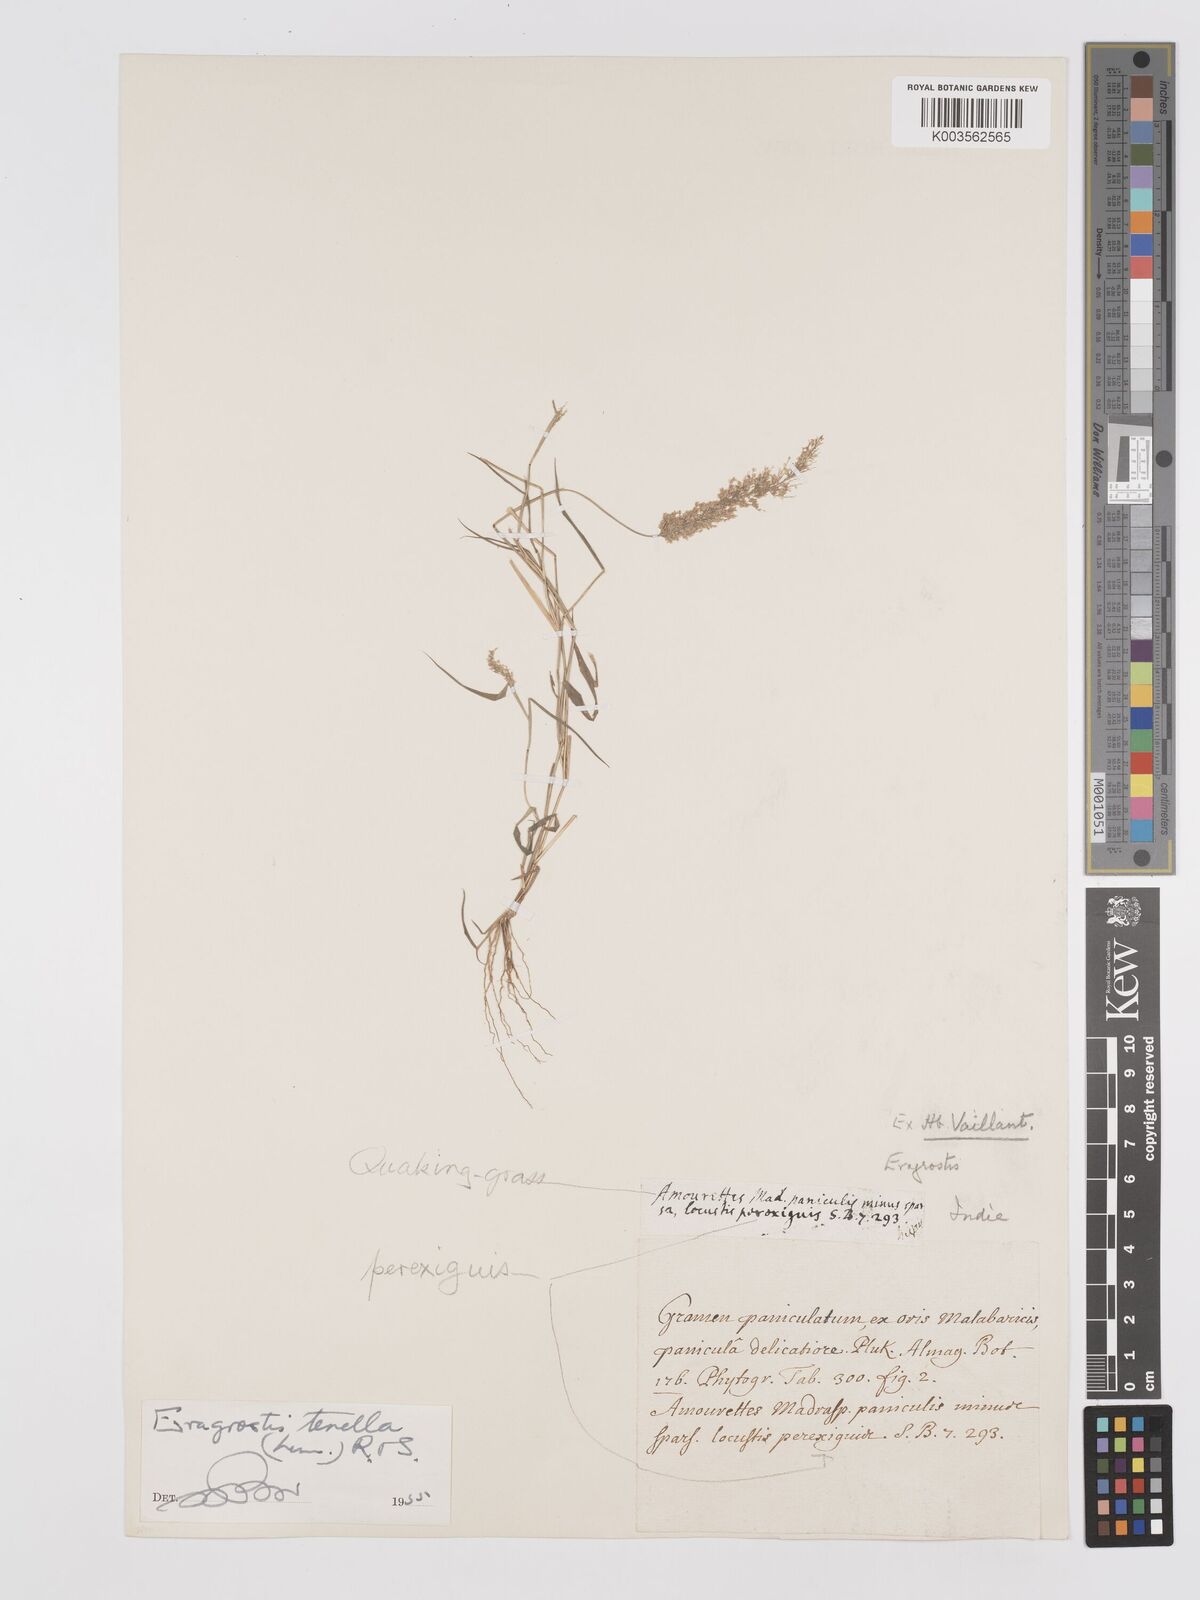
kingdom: Plantae
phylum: Tracheophyta
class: Liliopsida
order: Poales
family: Poaceae
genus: Eragrostis
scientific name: Eragrostis tenella
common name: Japanese lovegrass
